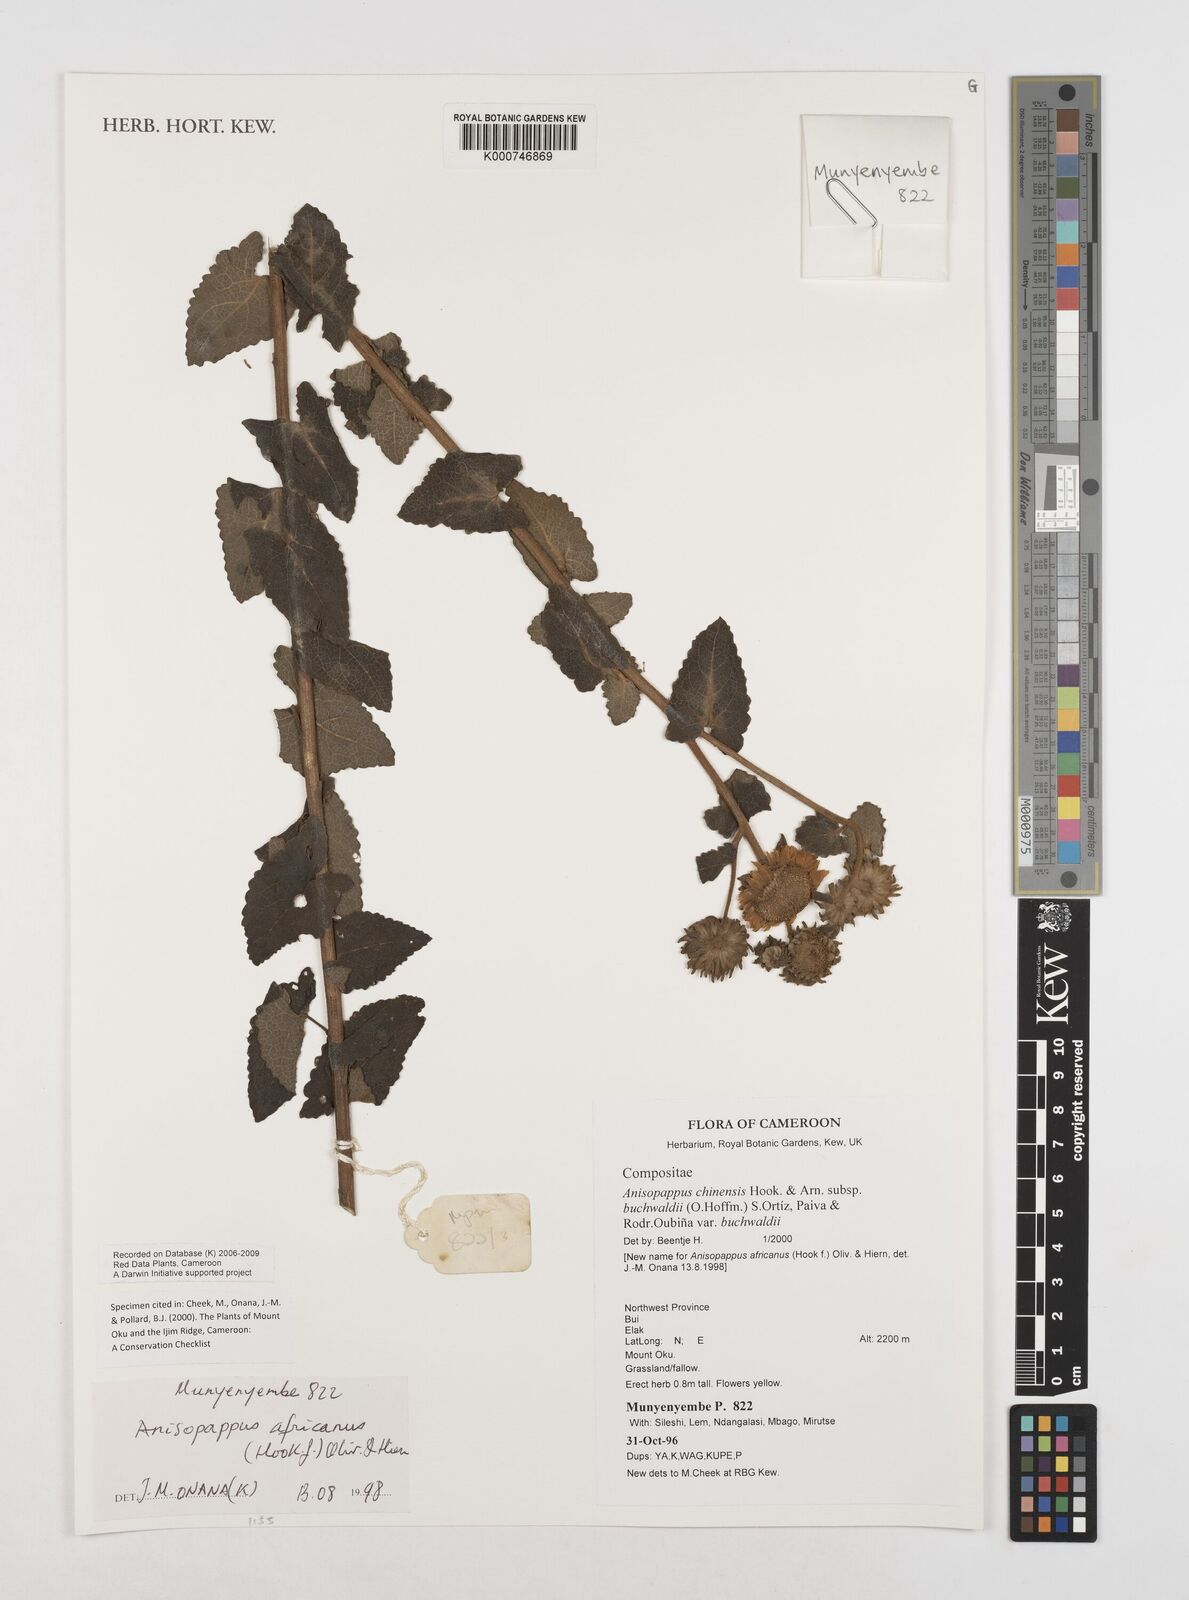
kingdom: Plantae
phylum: Tracheophyta
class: Magnoliopsida
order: Asterales
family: Asteraceae
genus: Anisopappus
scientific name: Anisopappus chinensis
